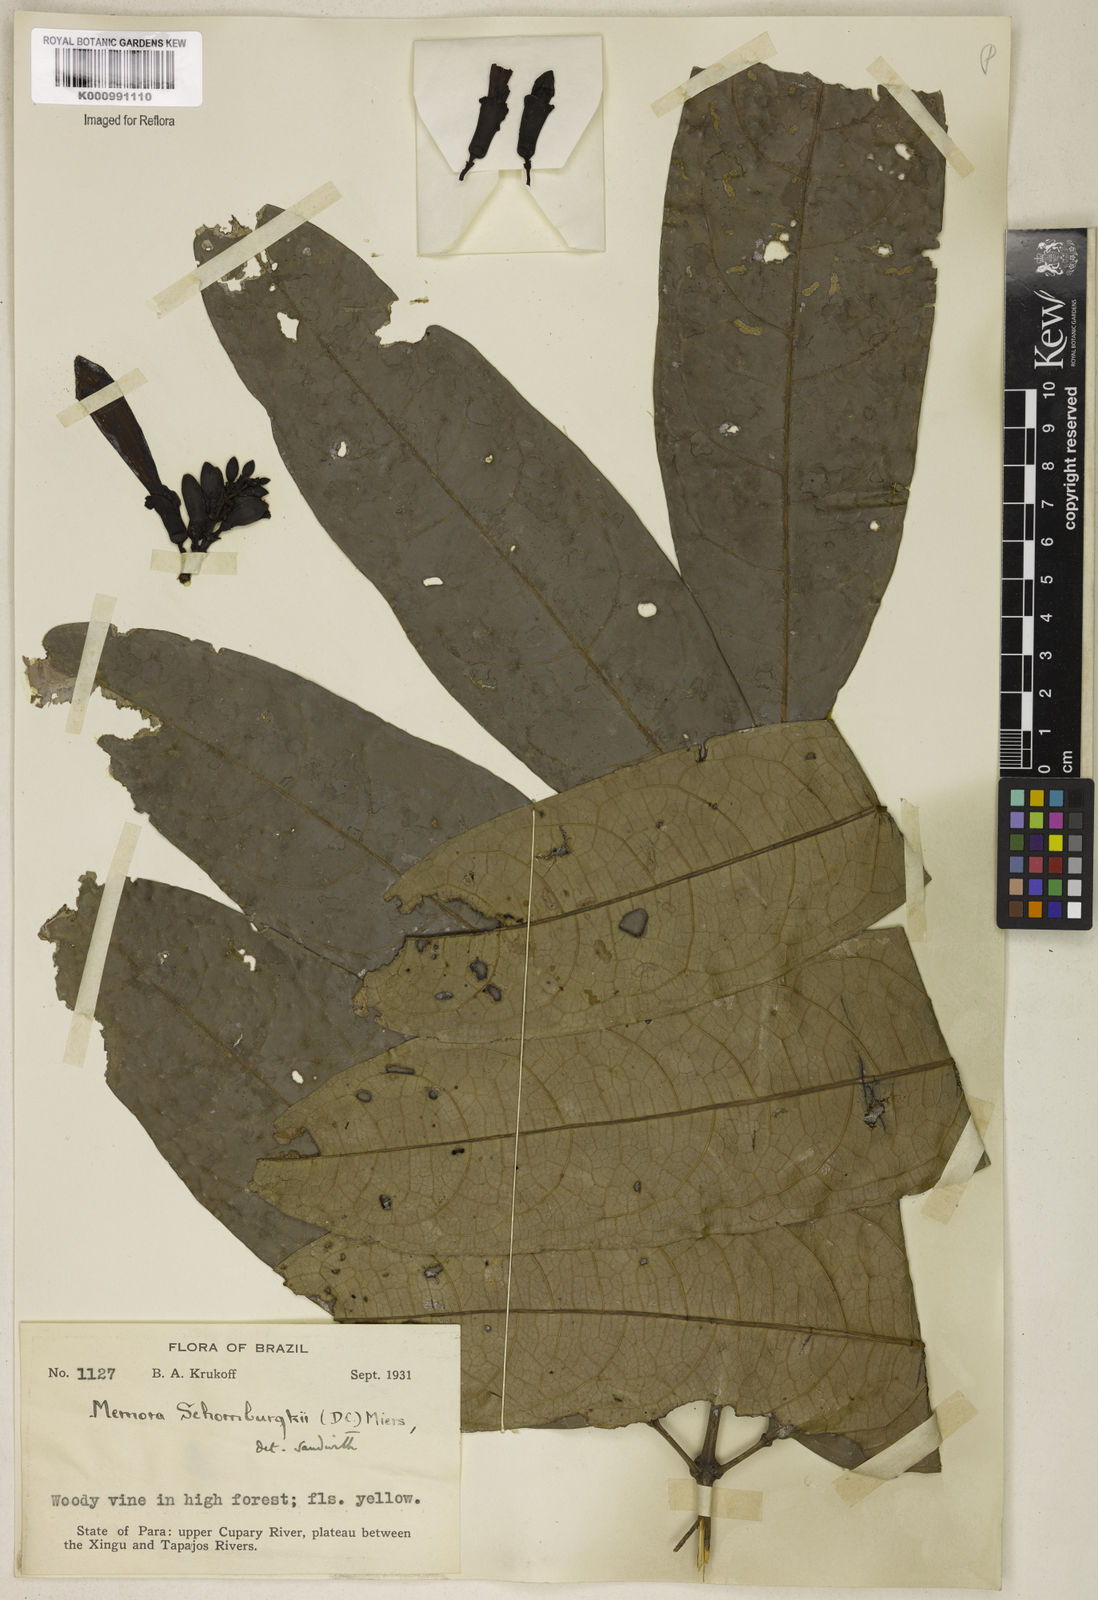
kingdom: Plantae
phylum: Tracheophyta
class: Magnoliopsida
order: Lamiales
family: Bignoniaceae
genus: Adenocalymma
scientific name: Adenocalymma schomburgkii
